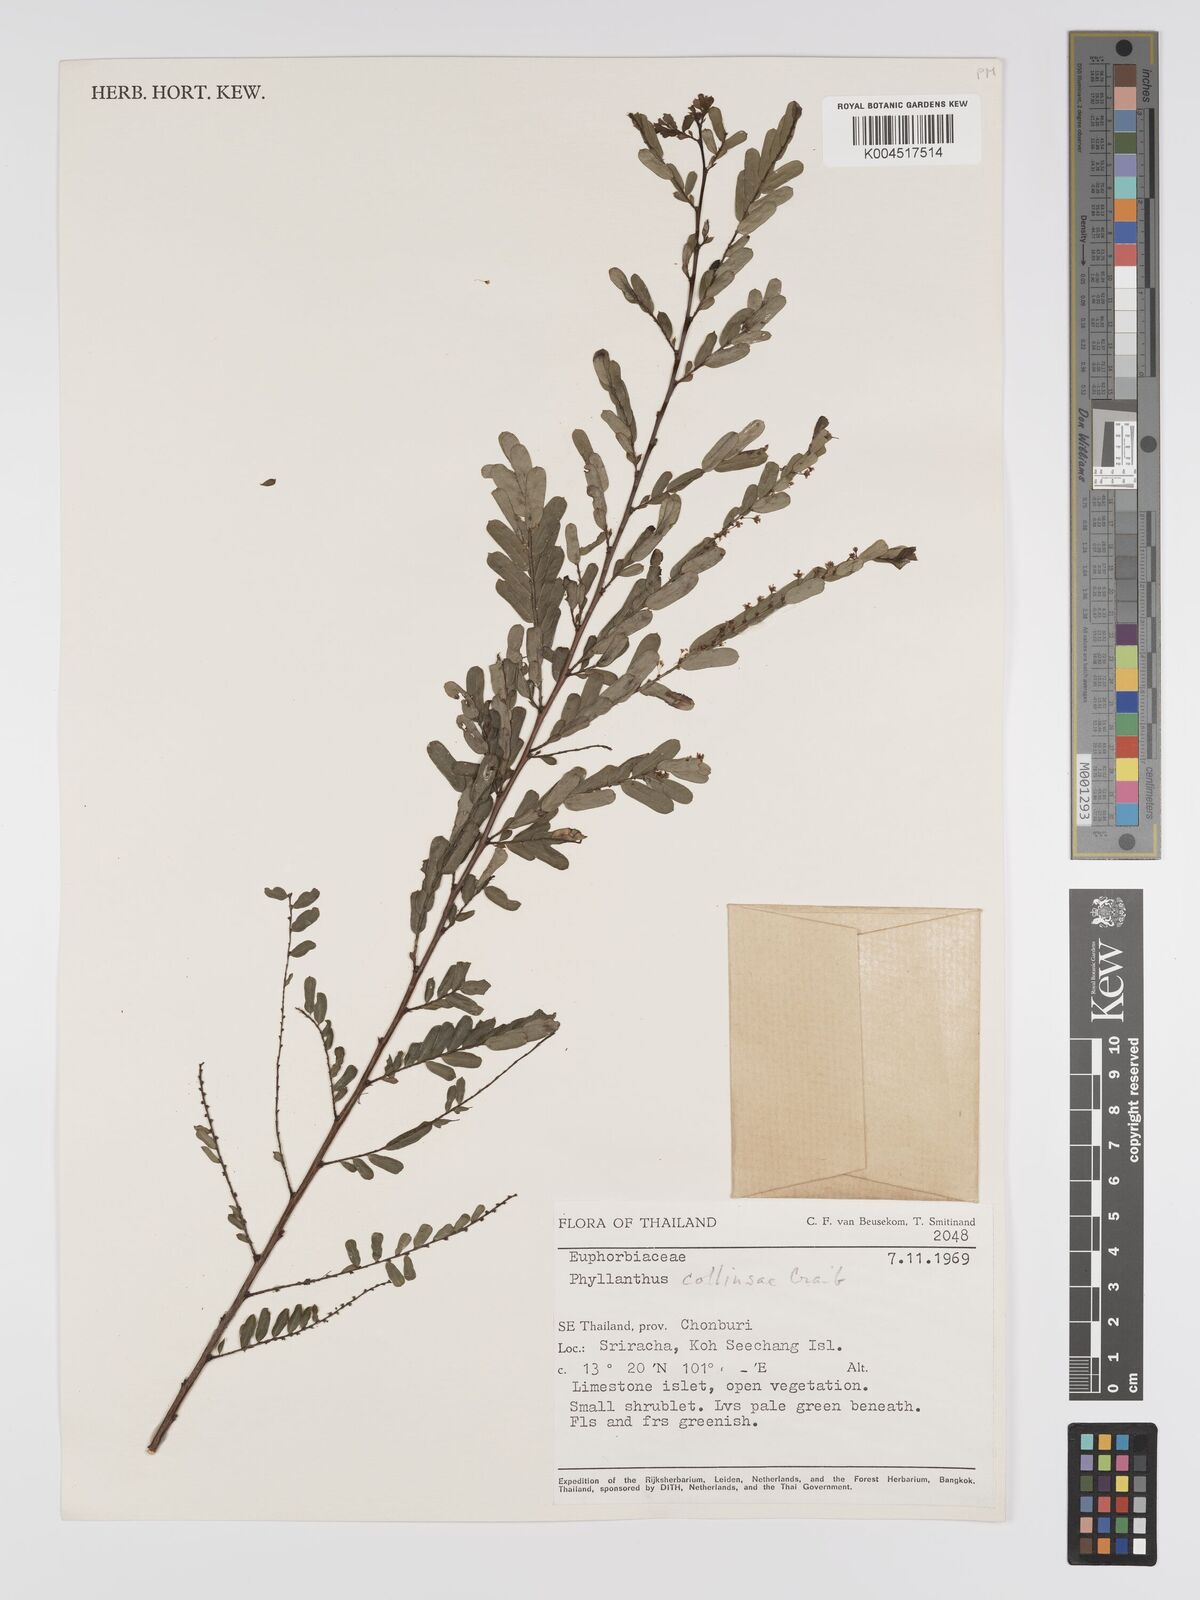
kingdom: Plantae
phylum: Tracheophyta
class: Magnoliopsida
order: Malpighiales
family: Phyllanthaceae
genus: Phyllanthus
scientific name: Phyllanthus collinsiae
